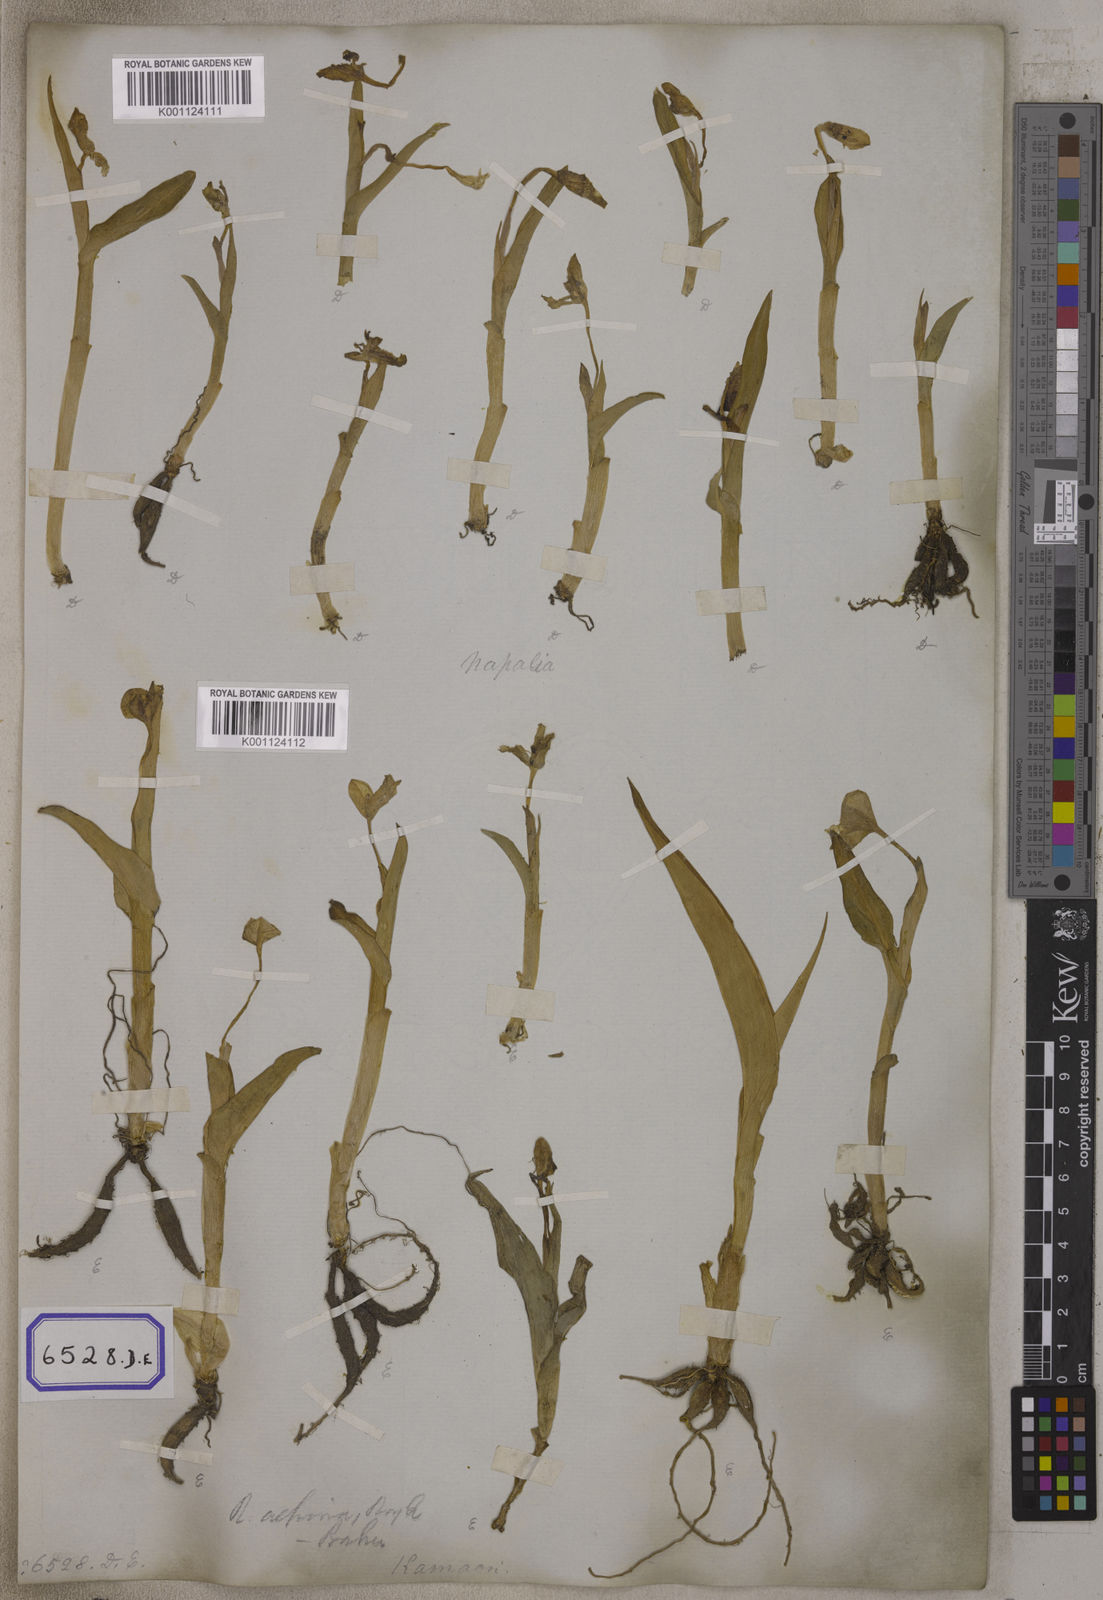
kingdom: Plantae
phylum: Tracheophyta
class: Liliopsida
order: Zingiberales
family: Zingiberaceae
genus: Roscoea
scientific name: Roscoea purpurea
